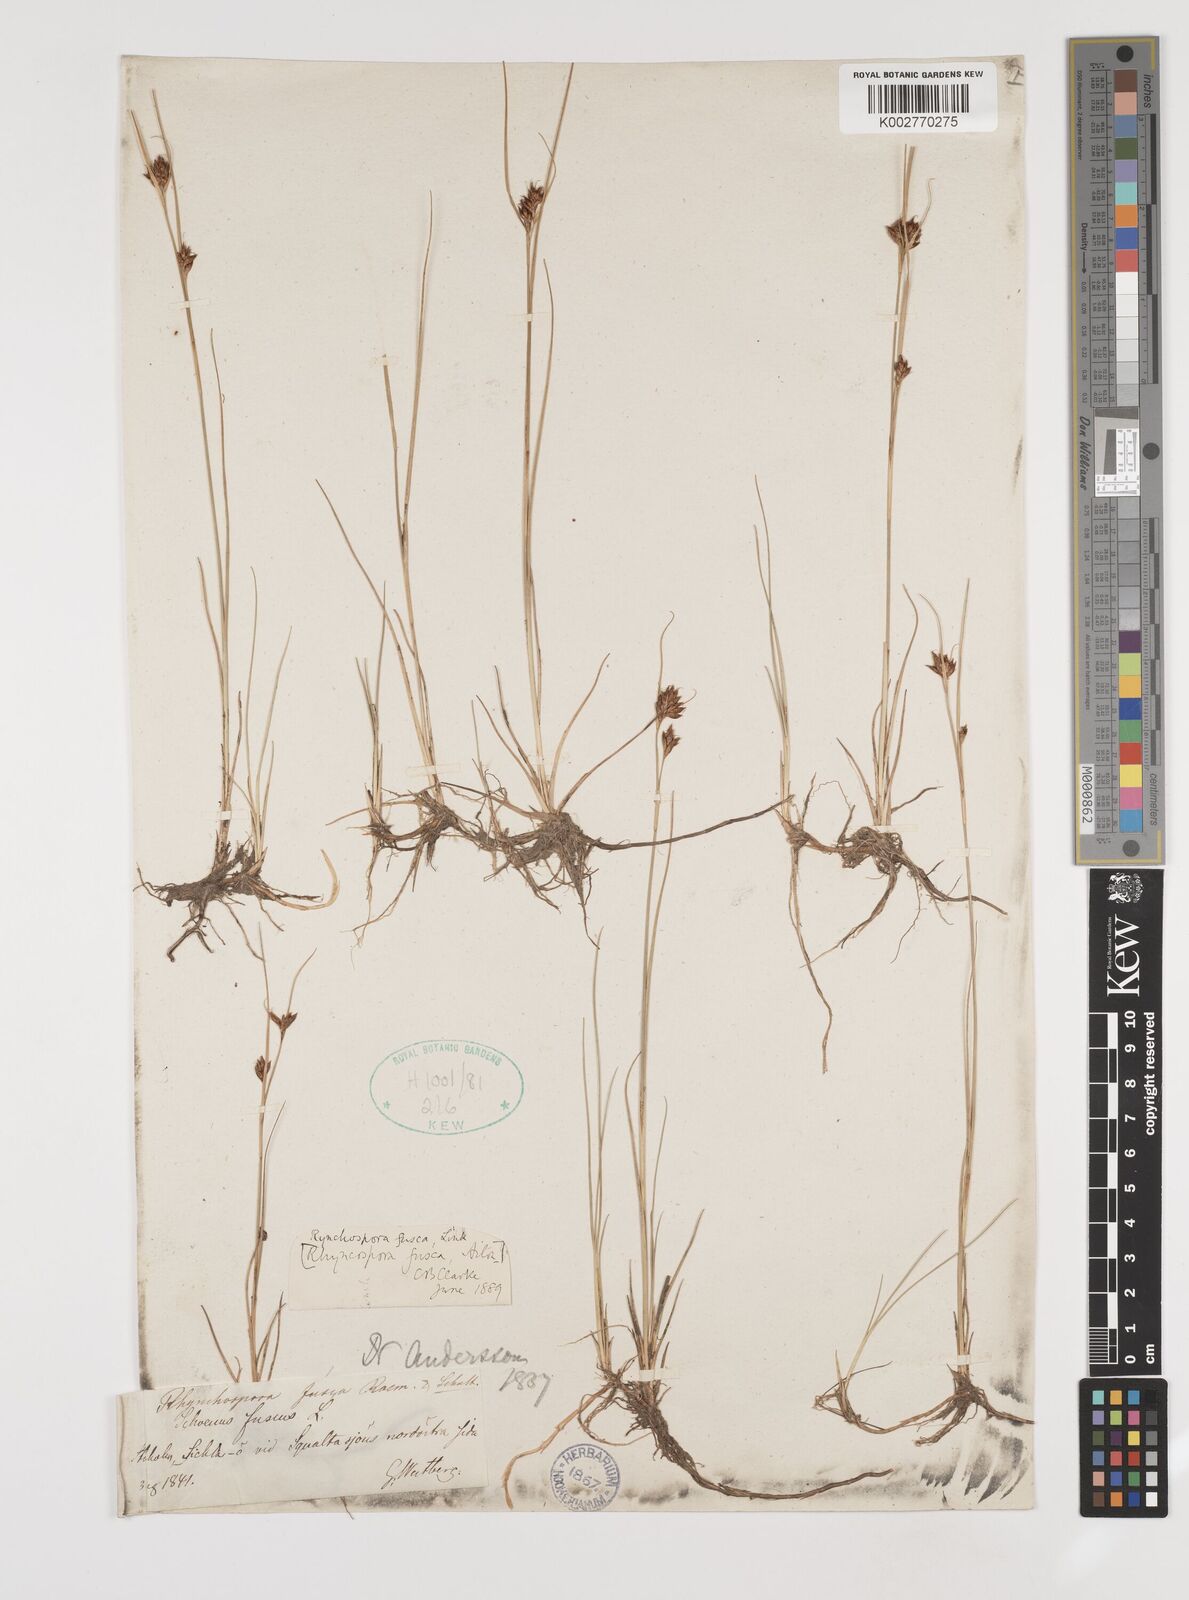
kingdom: Plantae
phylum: Tracheophyta
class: Liliopsida
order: Poales
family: Cyperaceae
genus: Rhynchospora
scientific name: Rhynchospora fusca
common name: Brown beak-sedge
